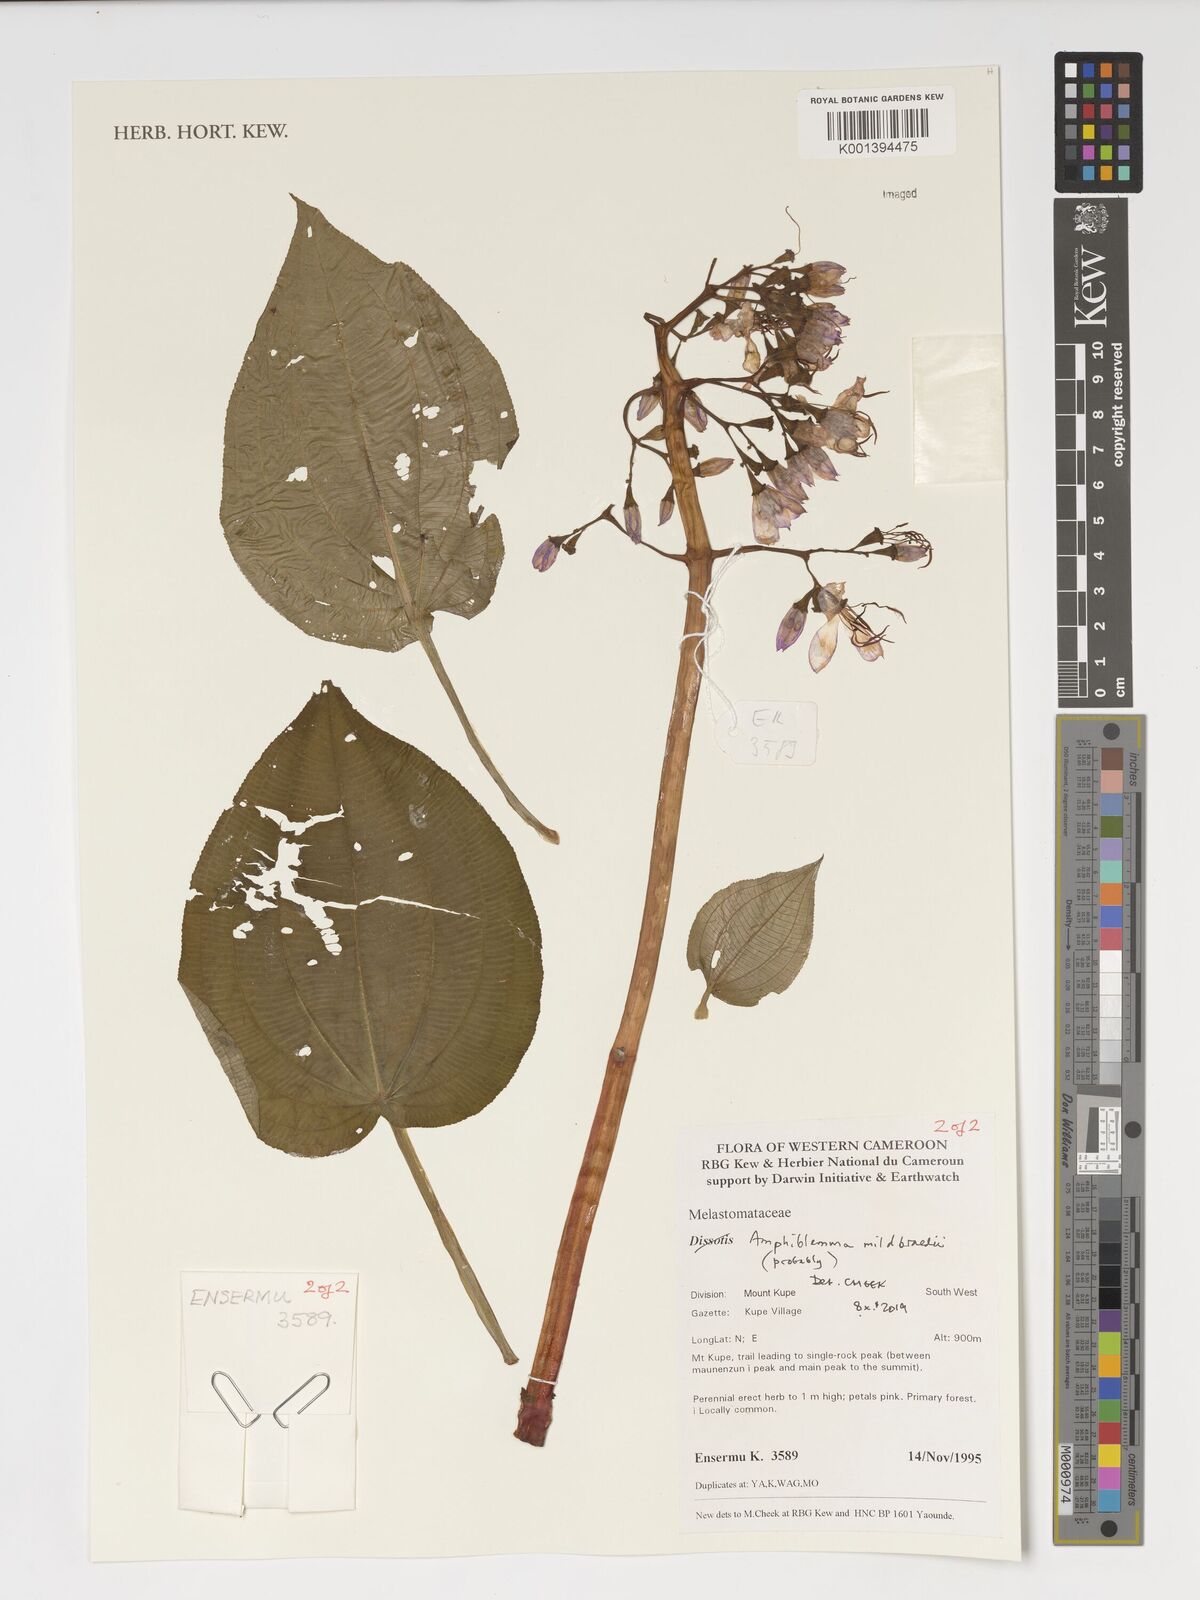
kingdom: Plantae
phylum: Tracheophyta
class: Magnoliopsida
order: Myrtales
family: Melastomataceae
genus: Amphiblemma
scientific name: Amphiblemma mildbraedii
